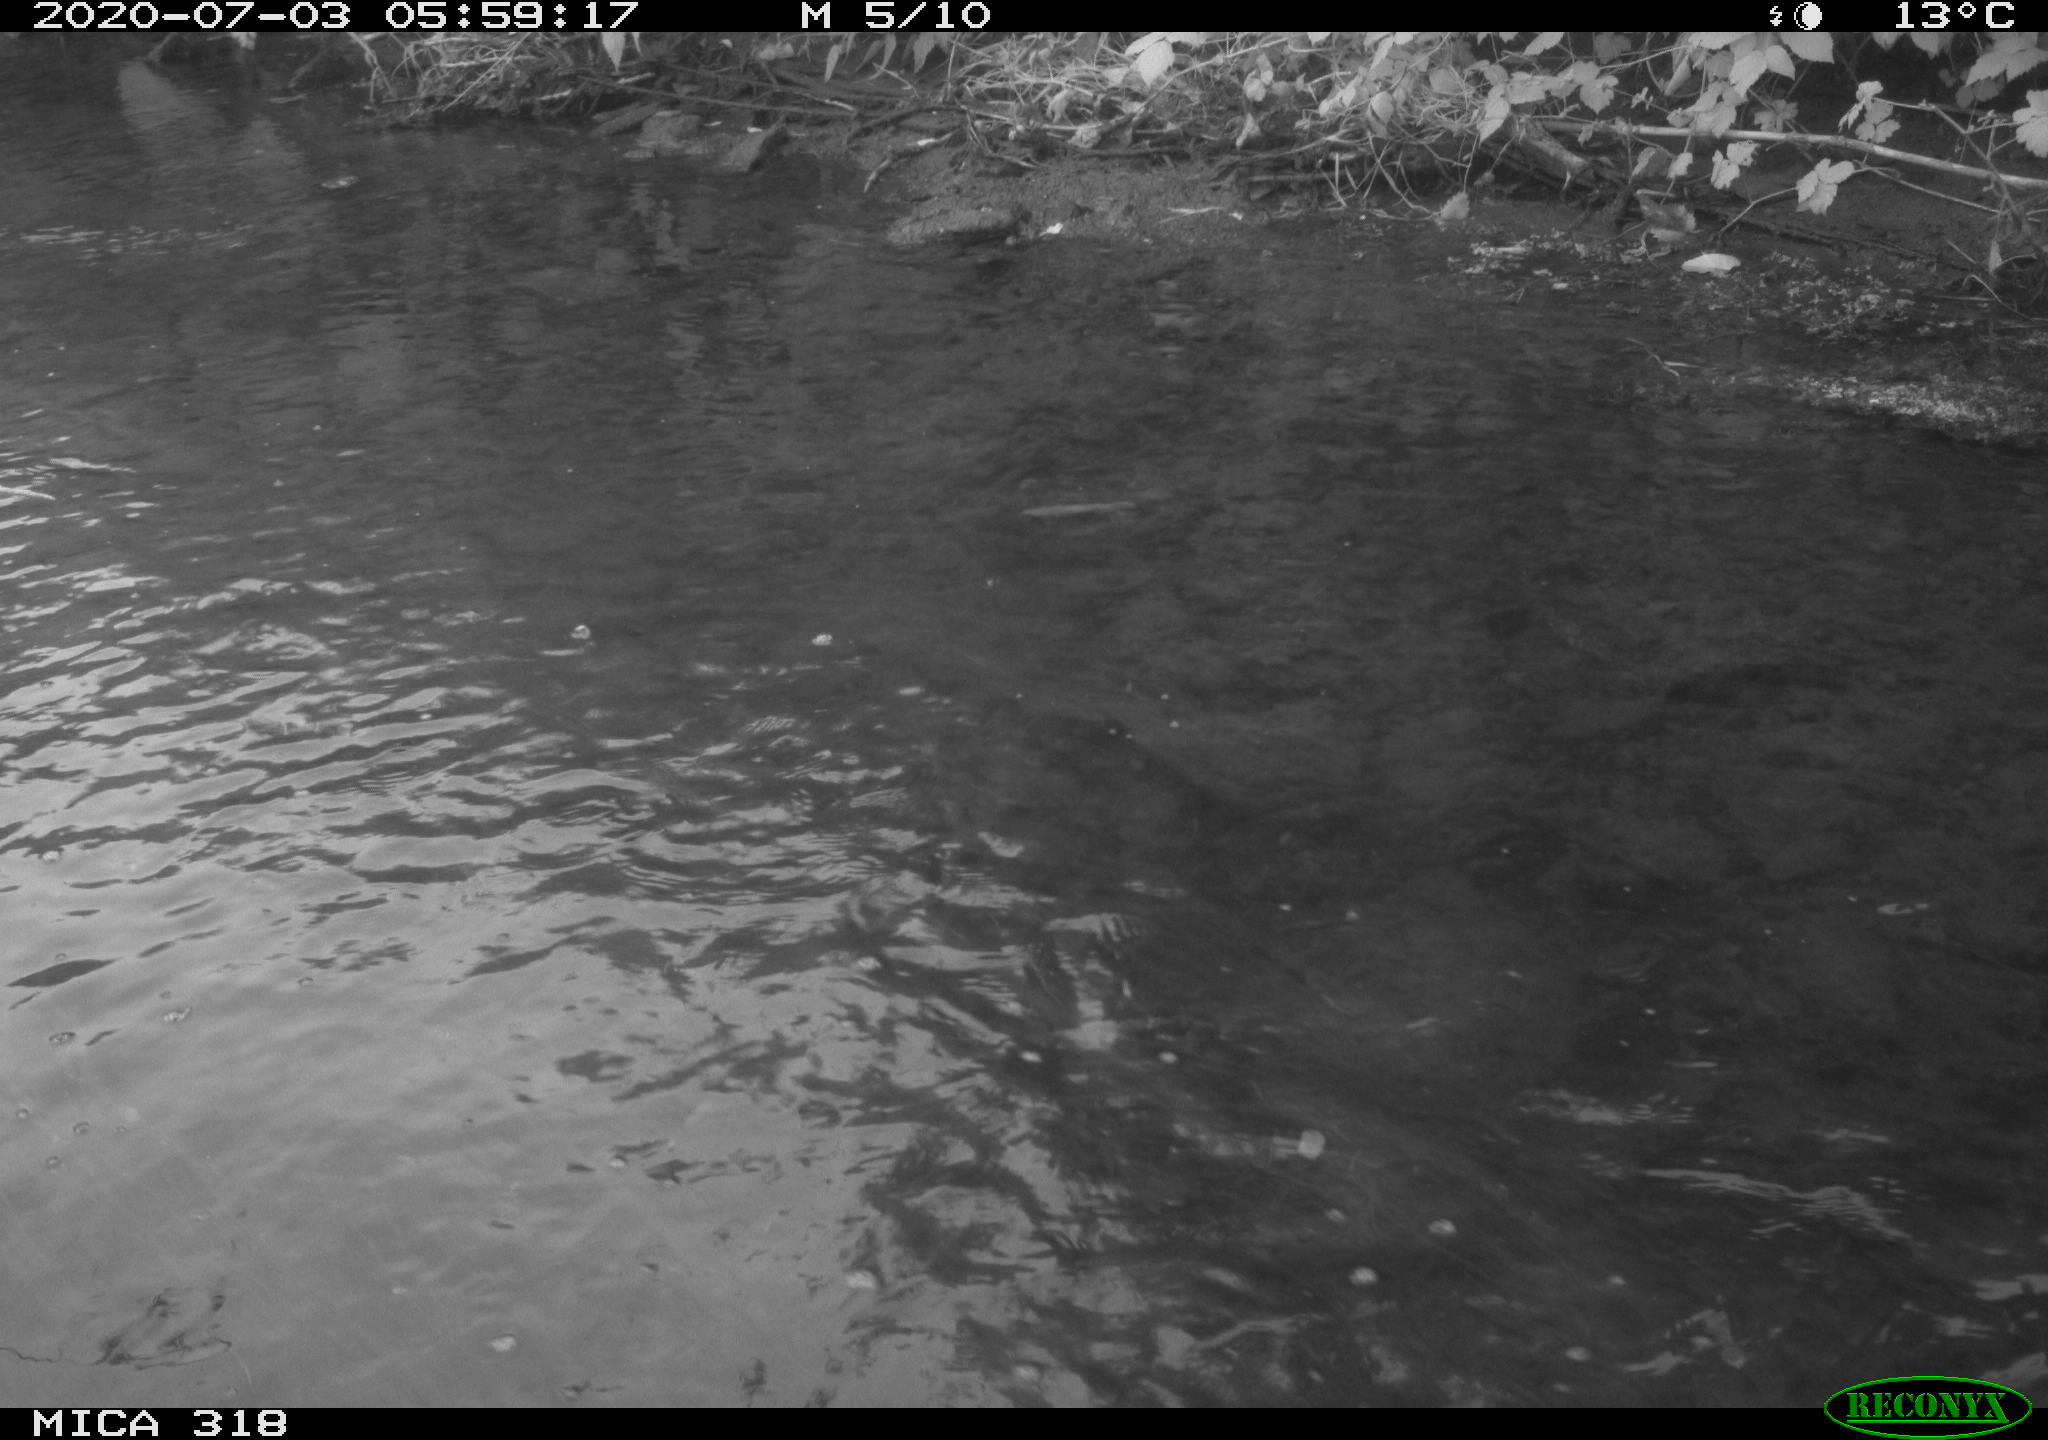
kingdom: Animalia
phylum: Chordata
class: Aves
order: Pelecaniformes
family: Ardeidae
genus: Ardea
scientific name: Ardea cinerea
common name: Grey heron
